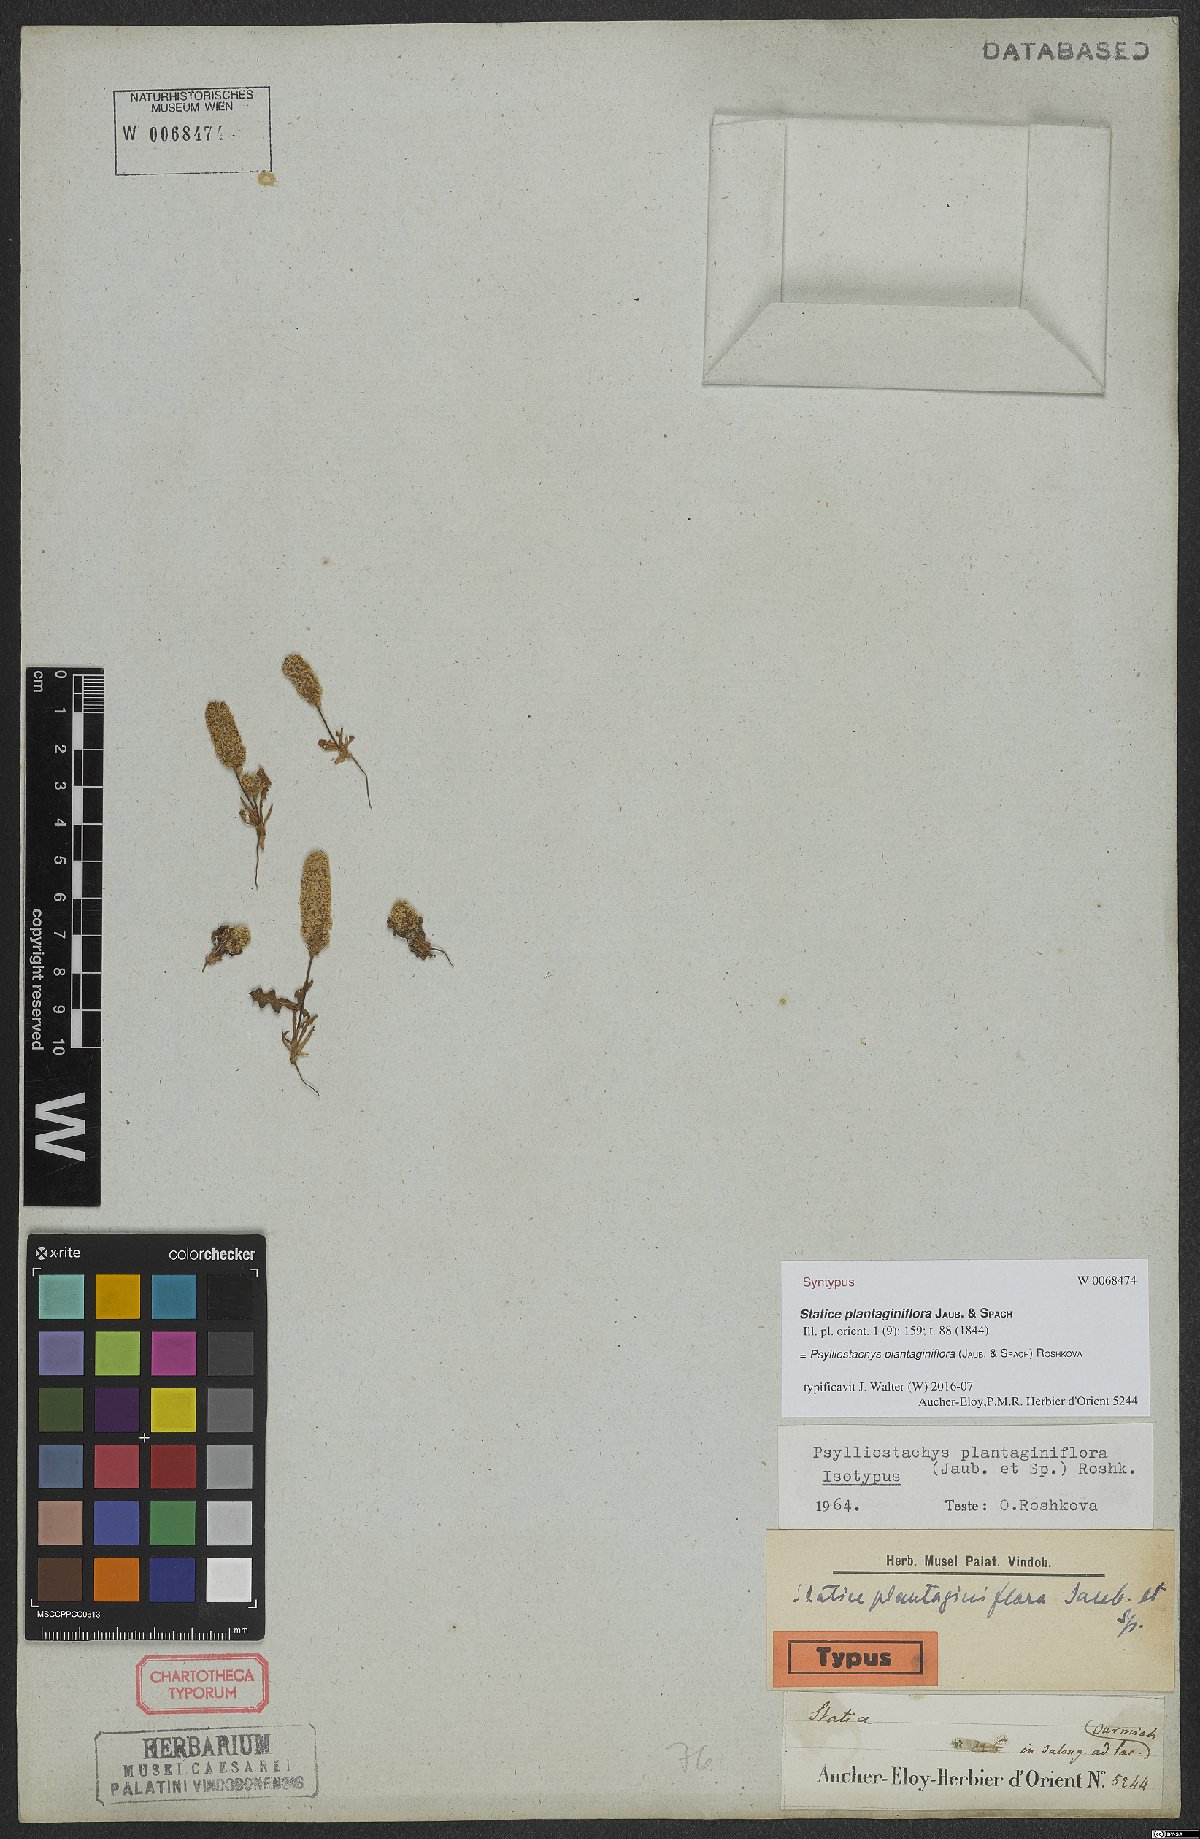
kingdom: Plantae
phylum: Tracheophyta
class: Magnoliopsida
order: Caryophyllales
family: Plumbaginaceae
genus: Psylliostachys
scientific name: Psylliostachys spicatus
